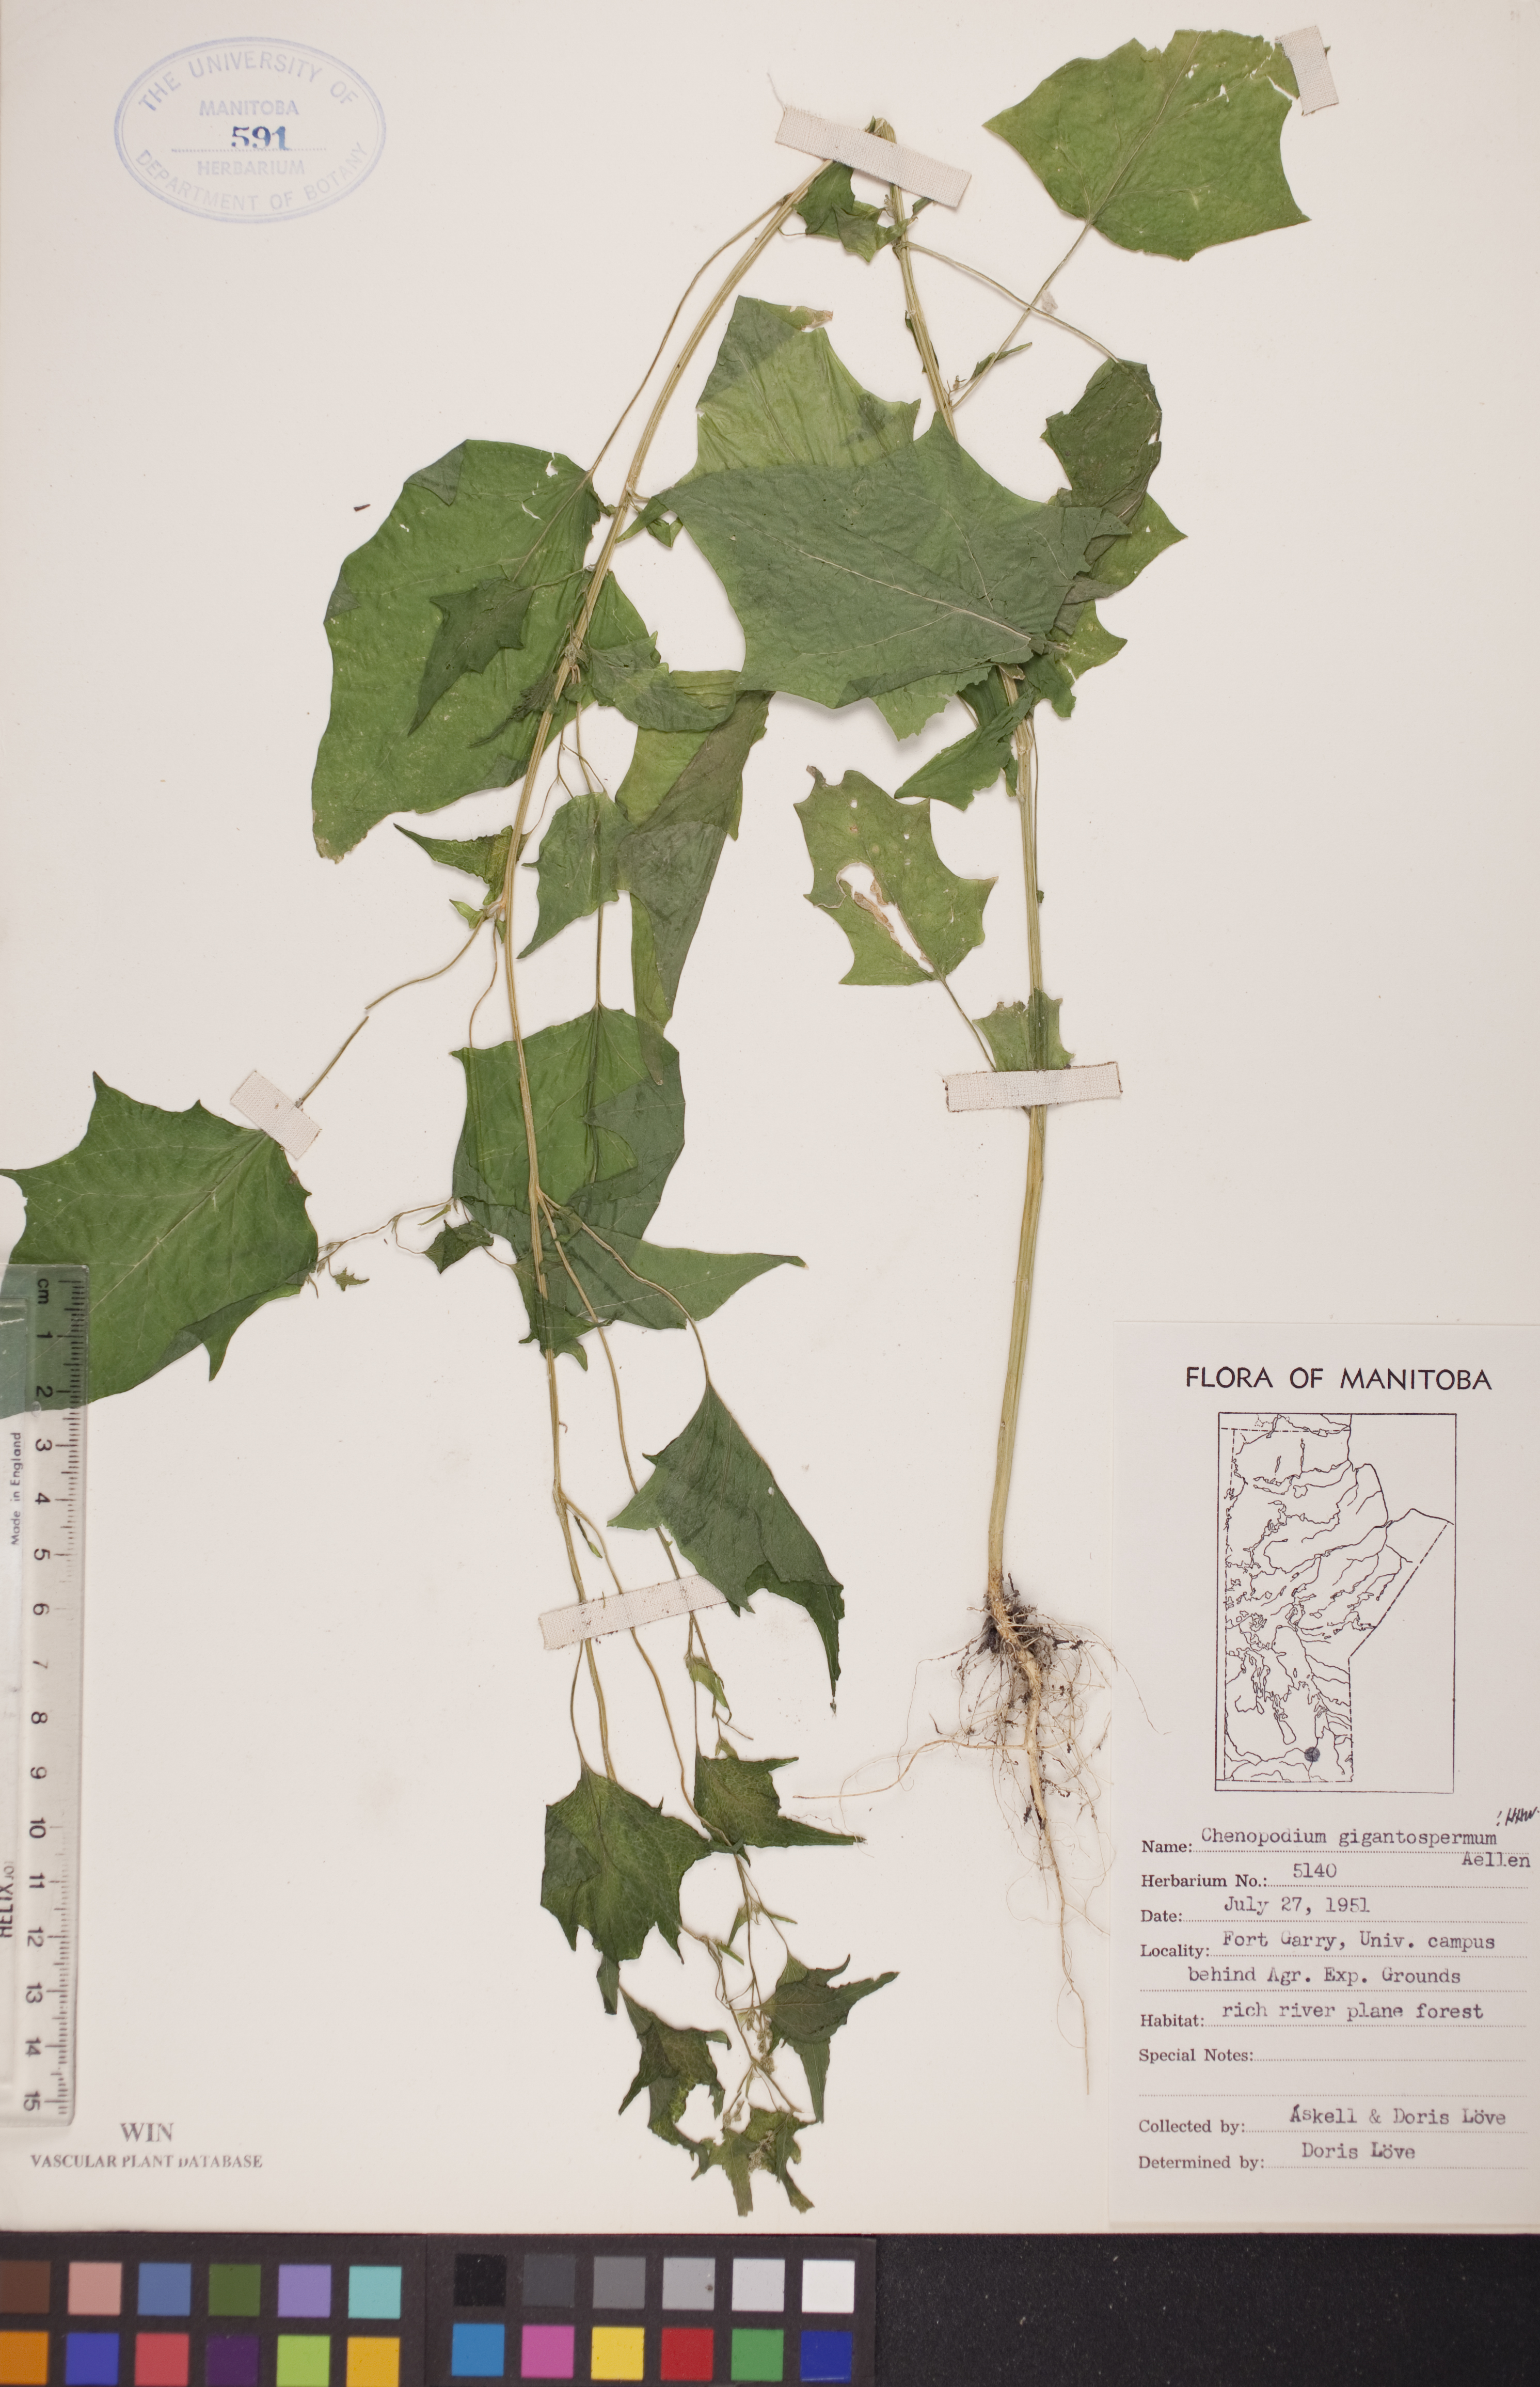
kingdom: Plantae
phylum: Tracheophyta
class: Magnoliopsida
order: Caryophyllales
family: Amaranthaceae
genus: Chenopodiastrum
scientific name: Chenopodiastrum simplex
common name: Large-seed goosefoot
